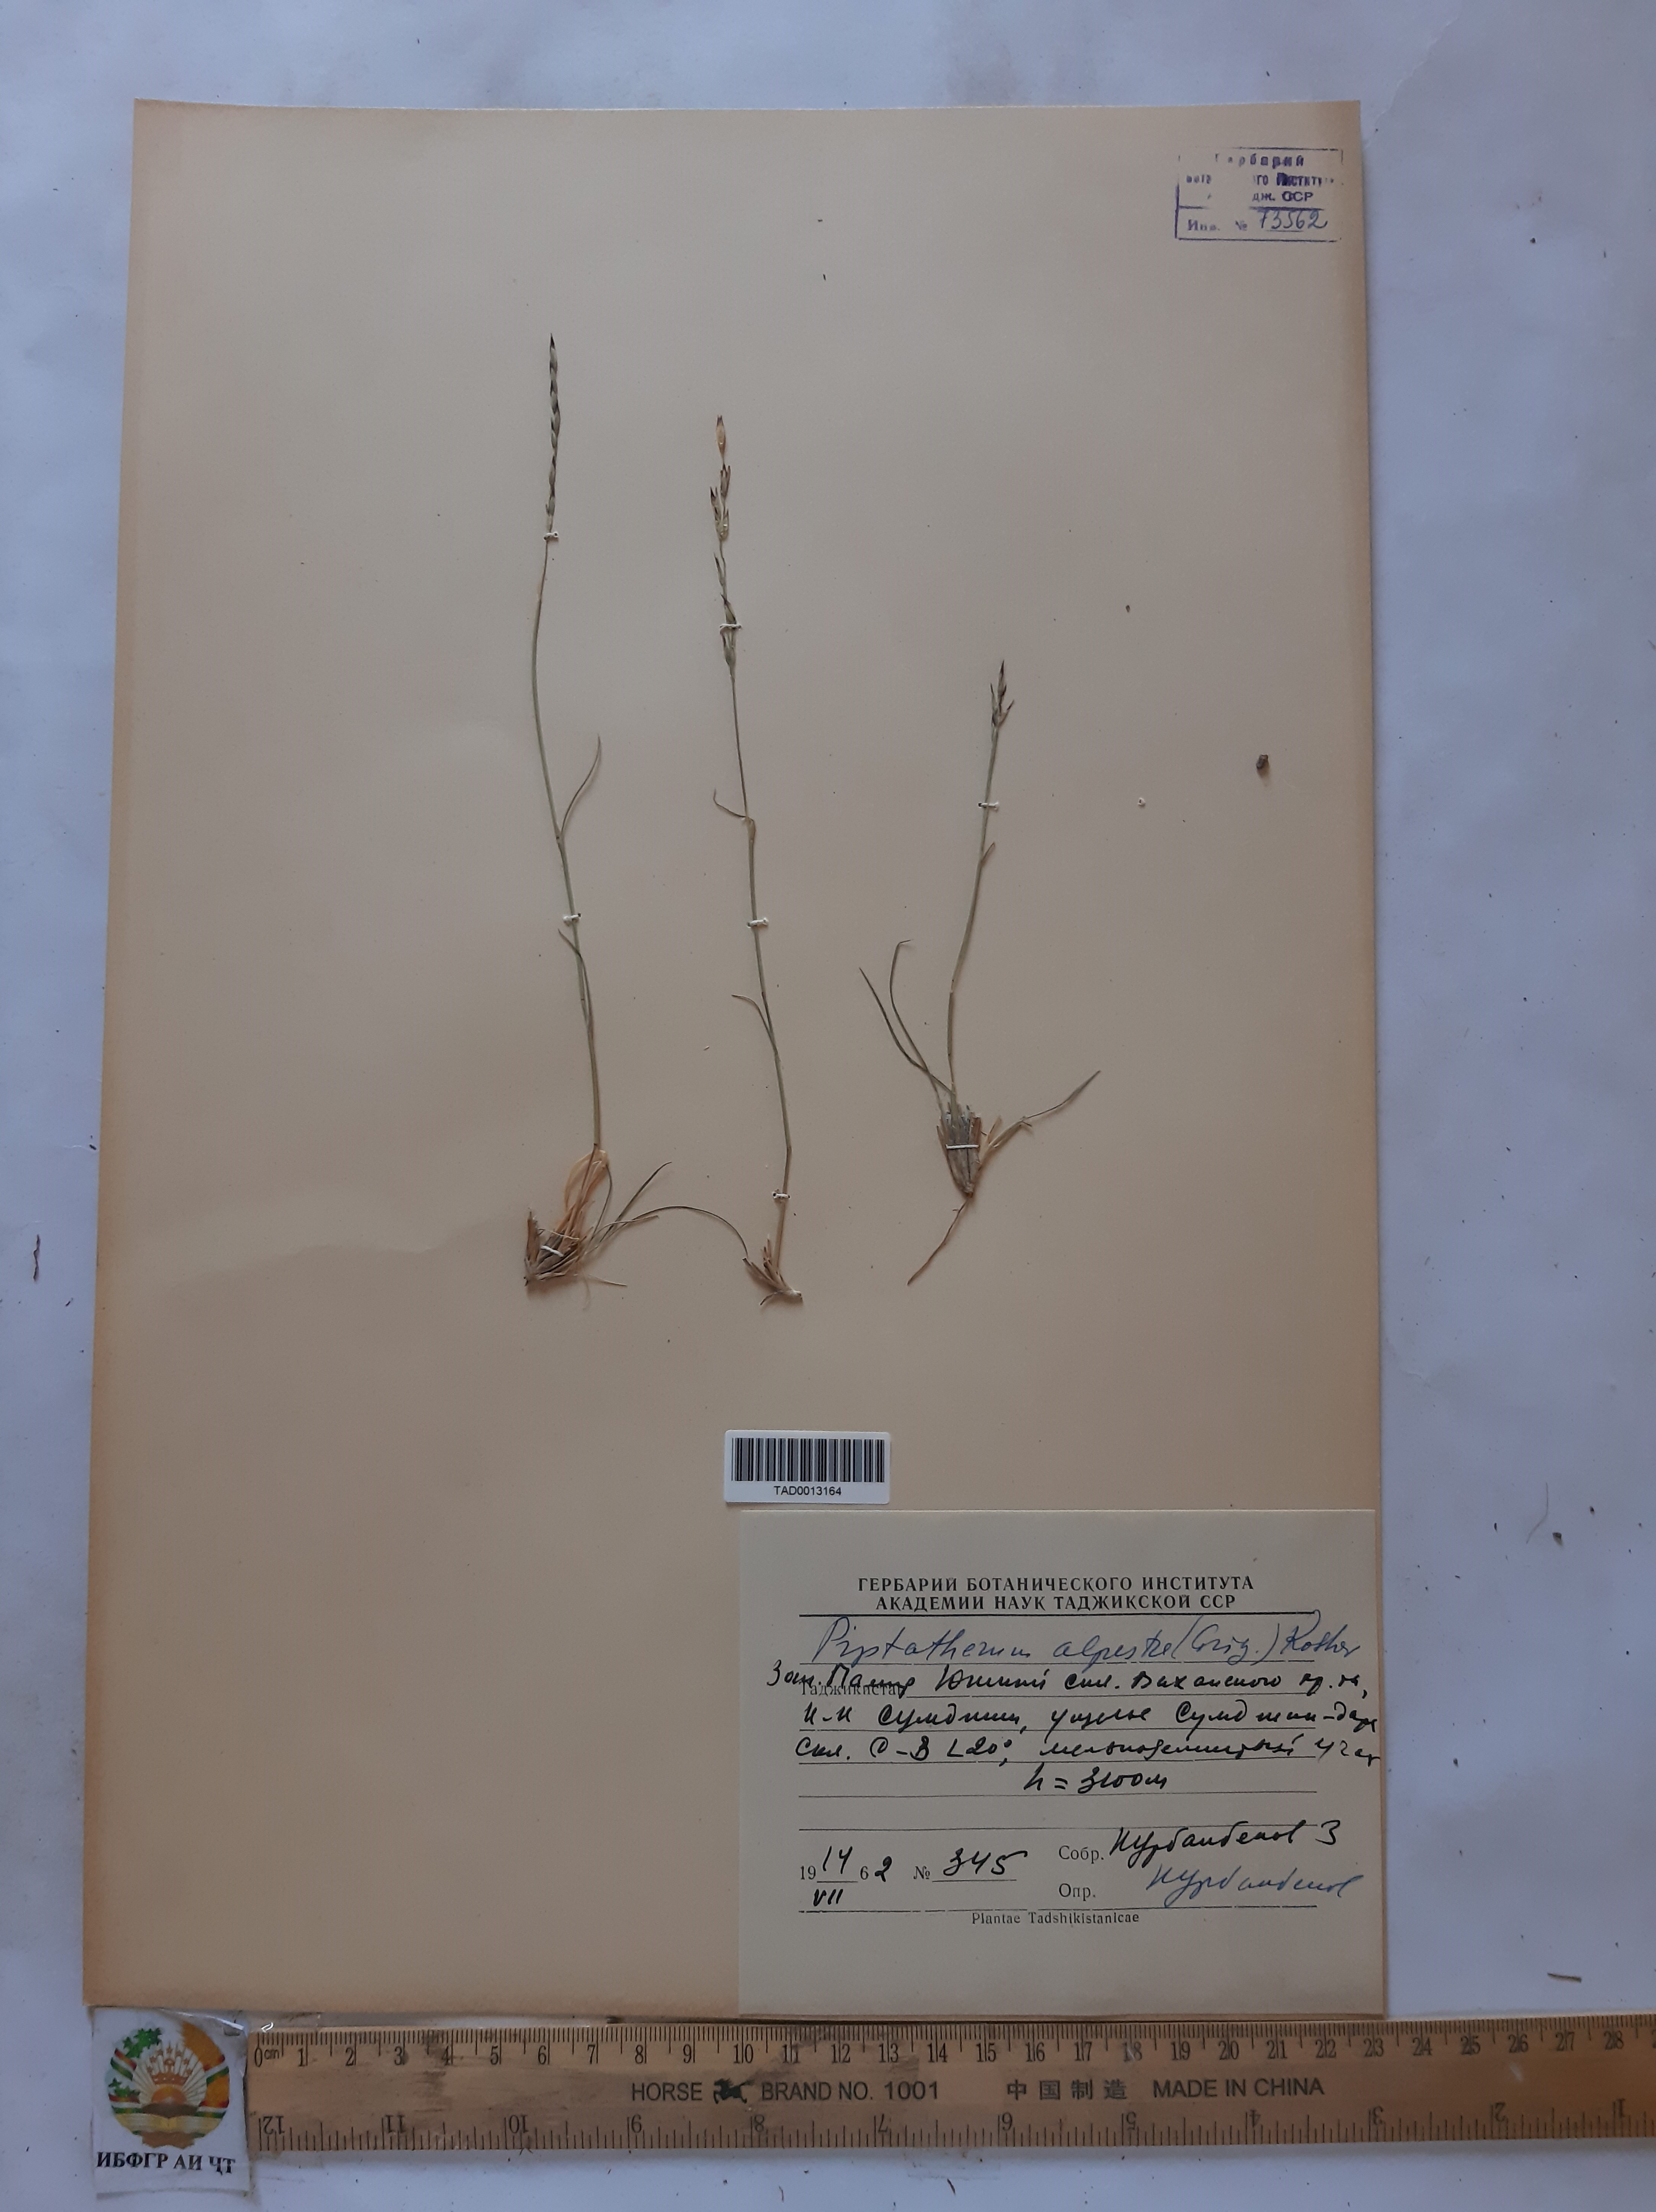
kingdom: Plantae
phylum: Tracheophyta
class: Liliopsida
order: Poales
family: Poaceae
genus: Piptatherum
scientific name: Piptatherum alpestre
